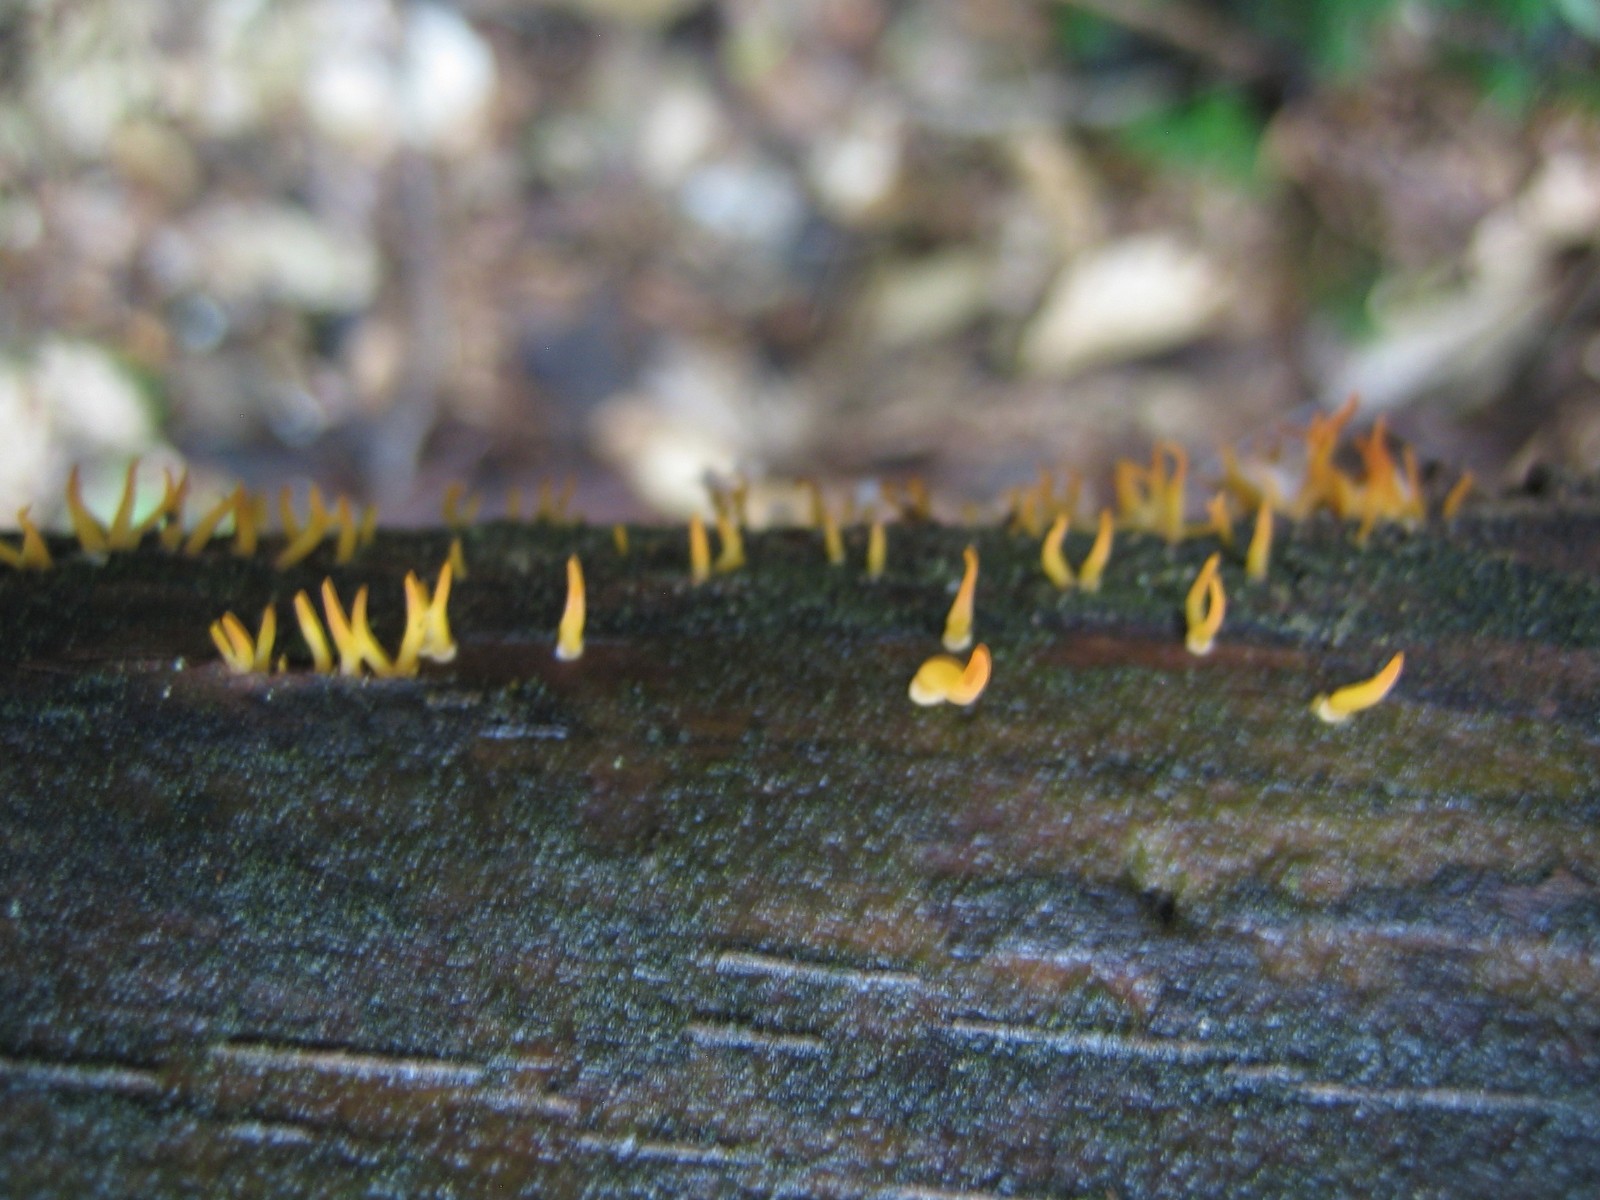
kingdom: Fungi
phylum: Basidiomycota
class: Dacrymycetes
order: Dacrymycetales
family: Dacrymycetaceae
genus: Calocera
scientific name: Calocera cornea
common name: liden guldgaffel
